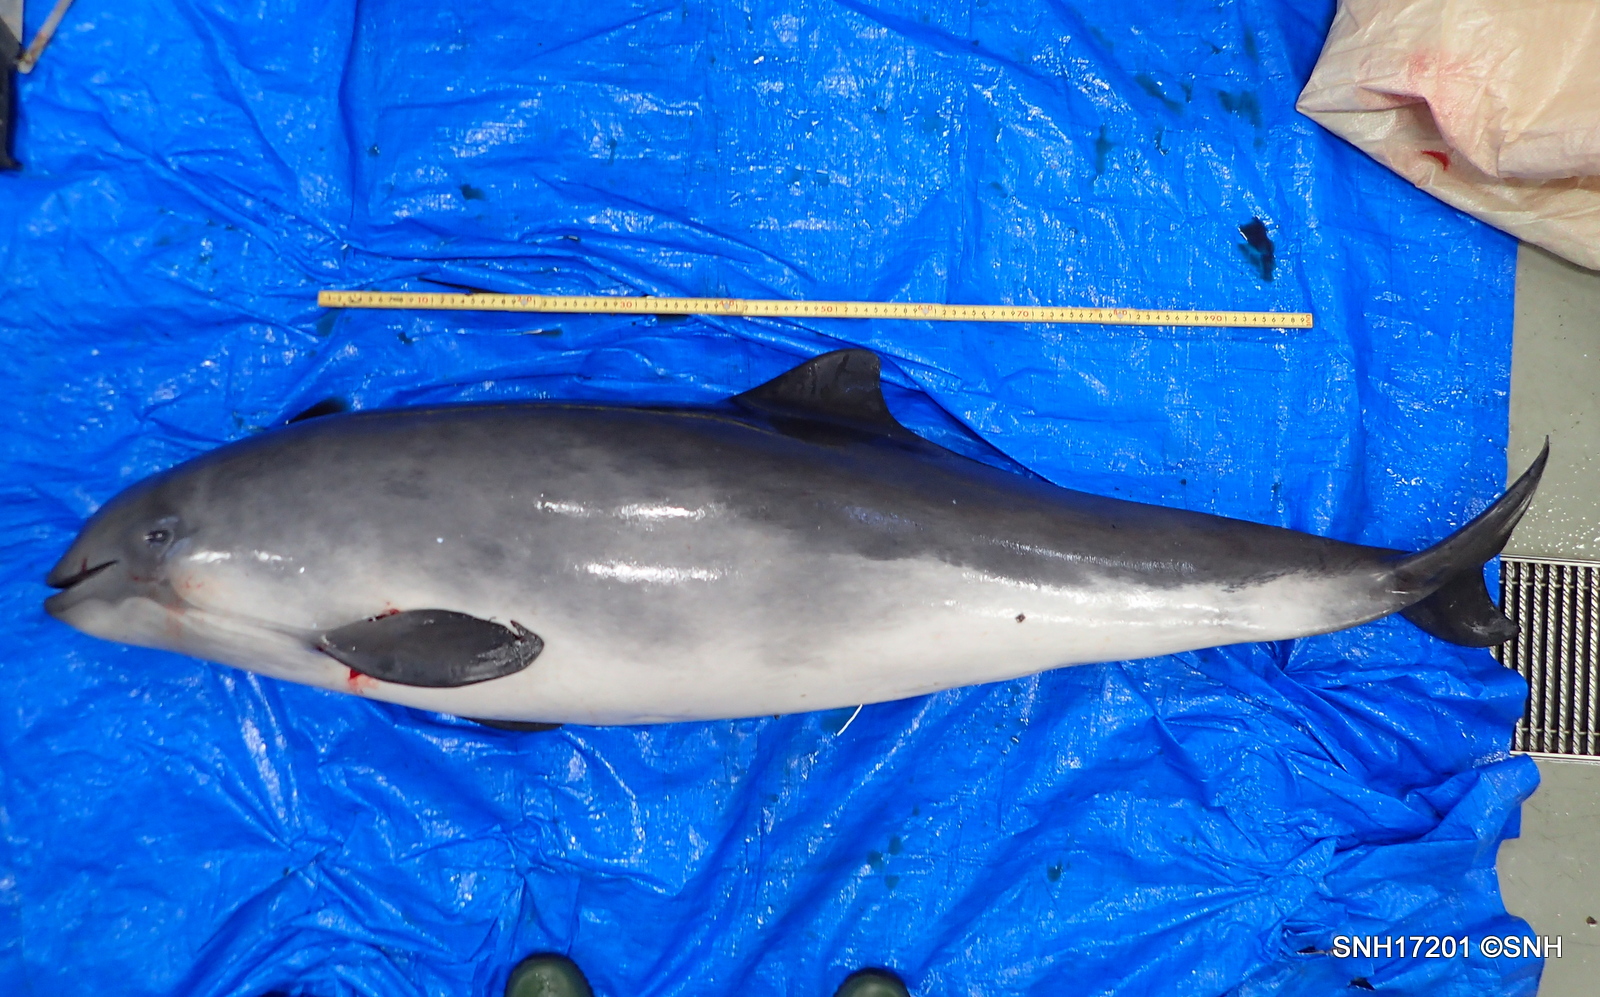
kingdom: Animalia
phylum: Chordata
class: Mammalia
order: Cetacea
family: Phocoenidae
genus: Phocoena
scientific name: Phocoena phocoena
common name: Harbour porpoise
